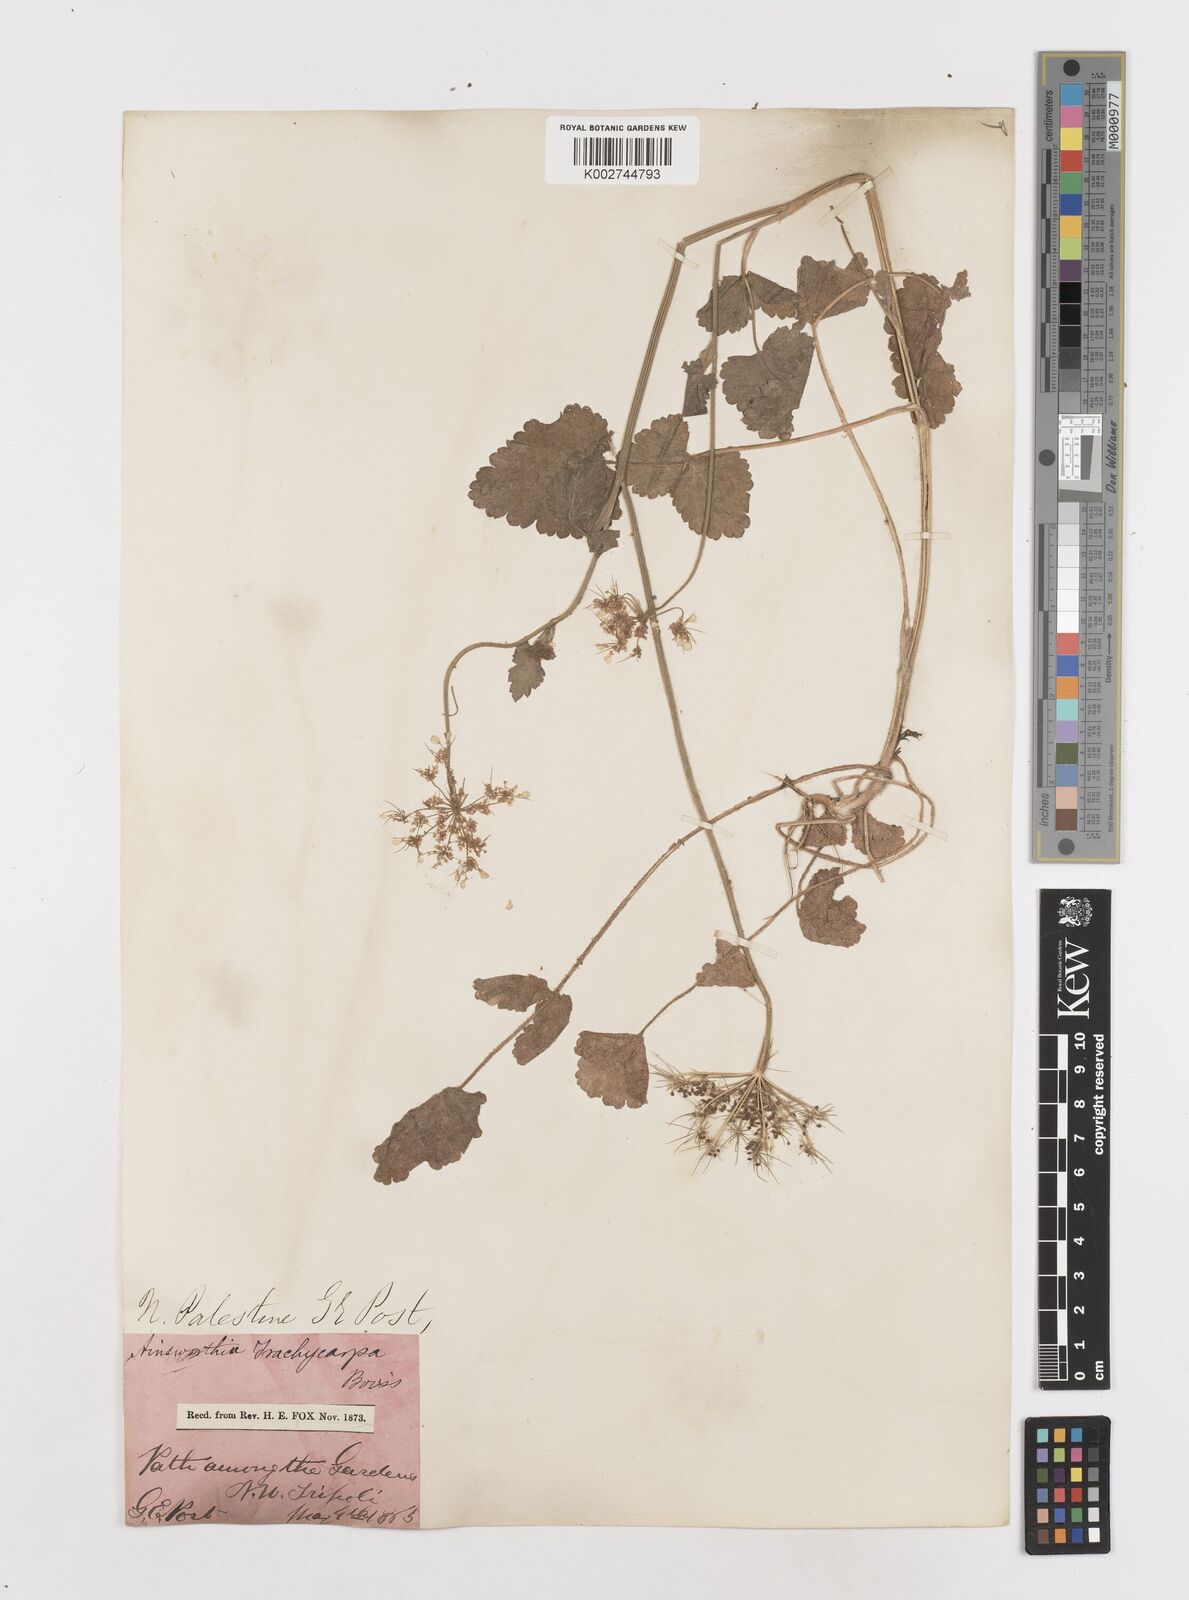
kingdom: Plantae
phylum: Tracheophyta
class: Magnoliopsida
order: Apiales
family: Apiaceae
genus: Ainsworthia
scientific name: Ainsworthia trachycarpa
